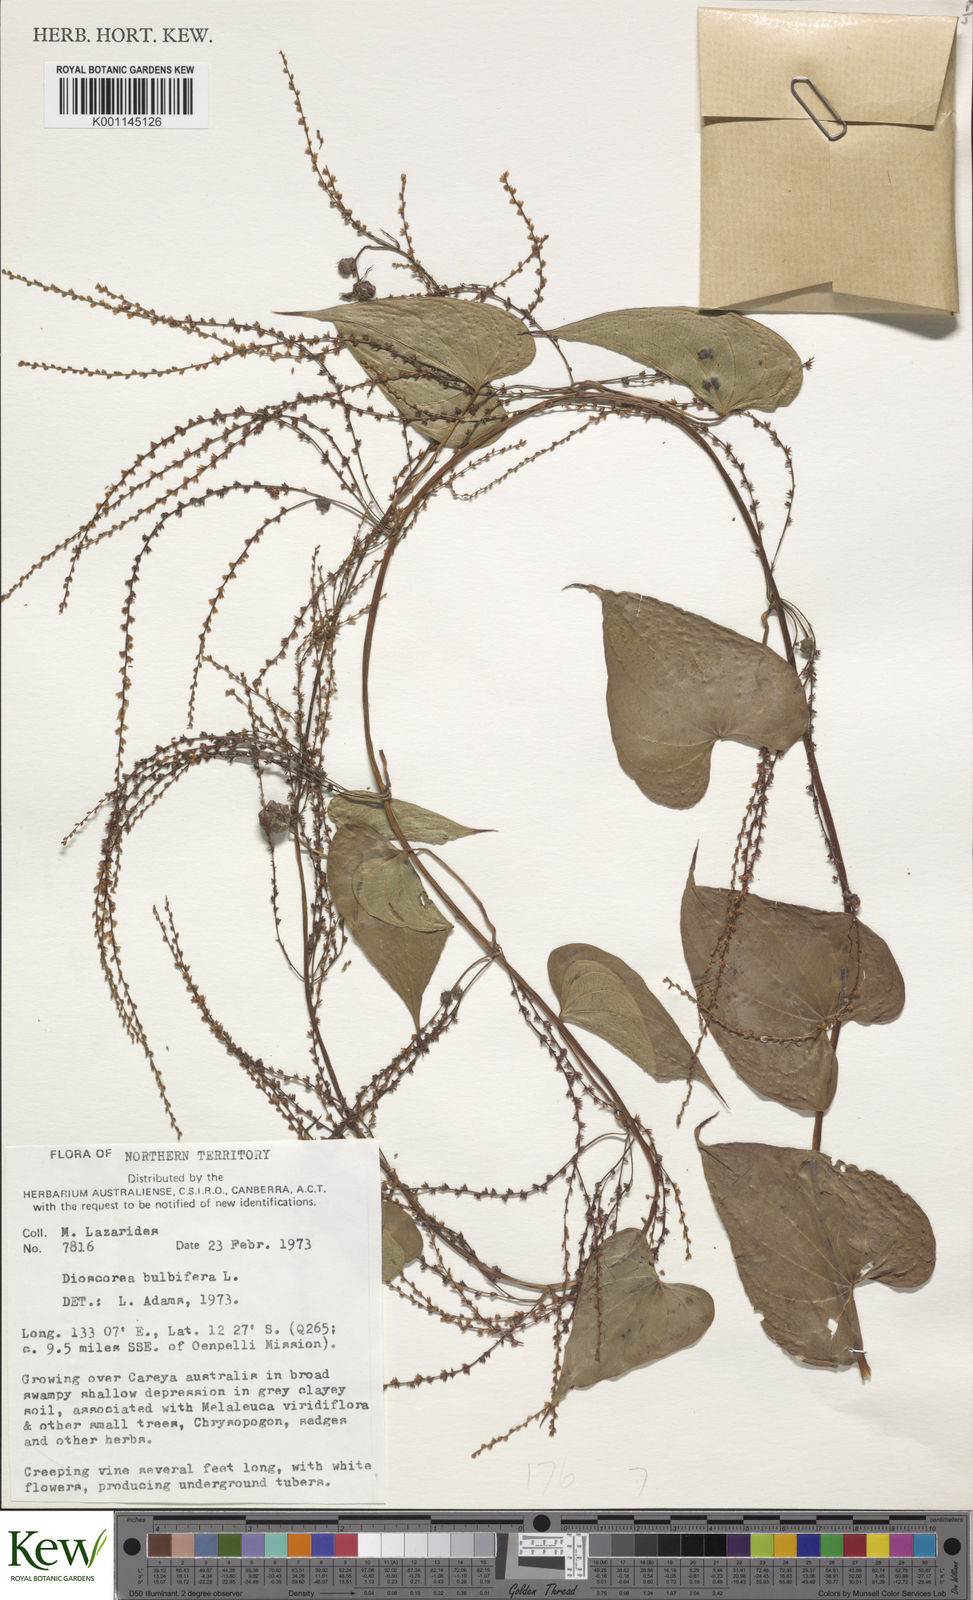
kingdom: Plantae
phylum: Tracheophyta
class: Liliopsida
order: Dioscoreales
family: Dioscoreaceae
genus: Dioscorea
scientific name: Dioscorea bulbifera
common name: Air yam
